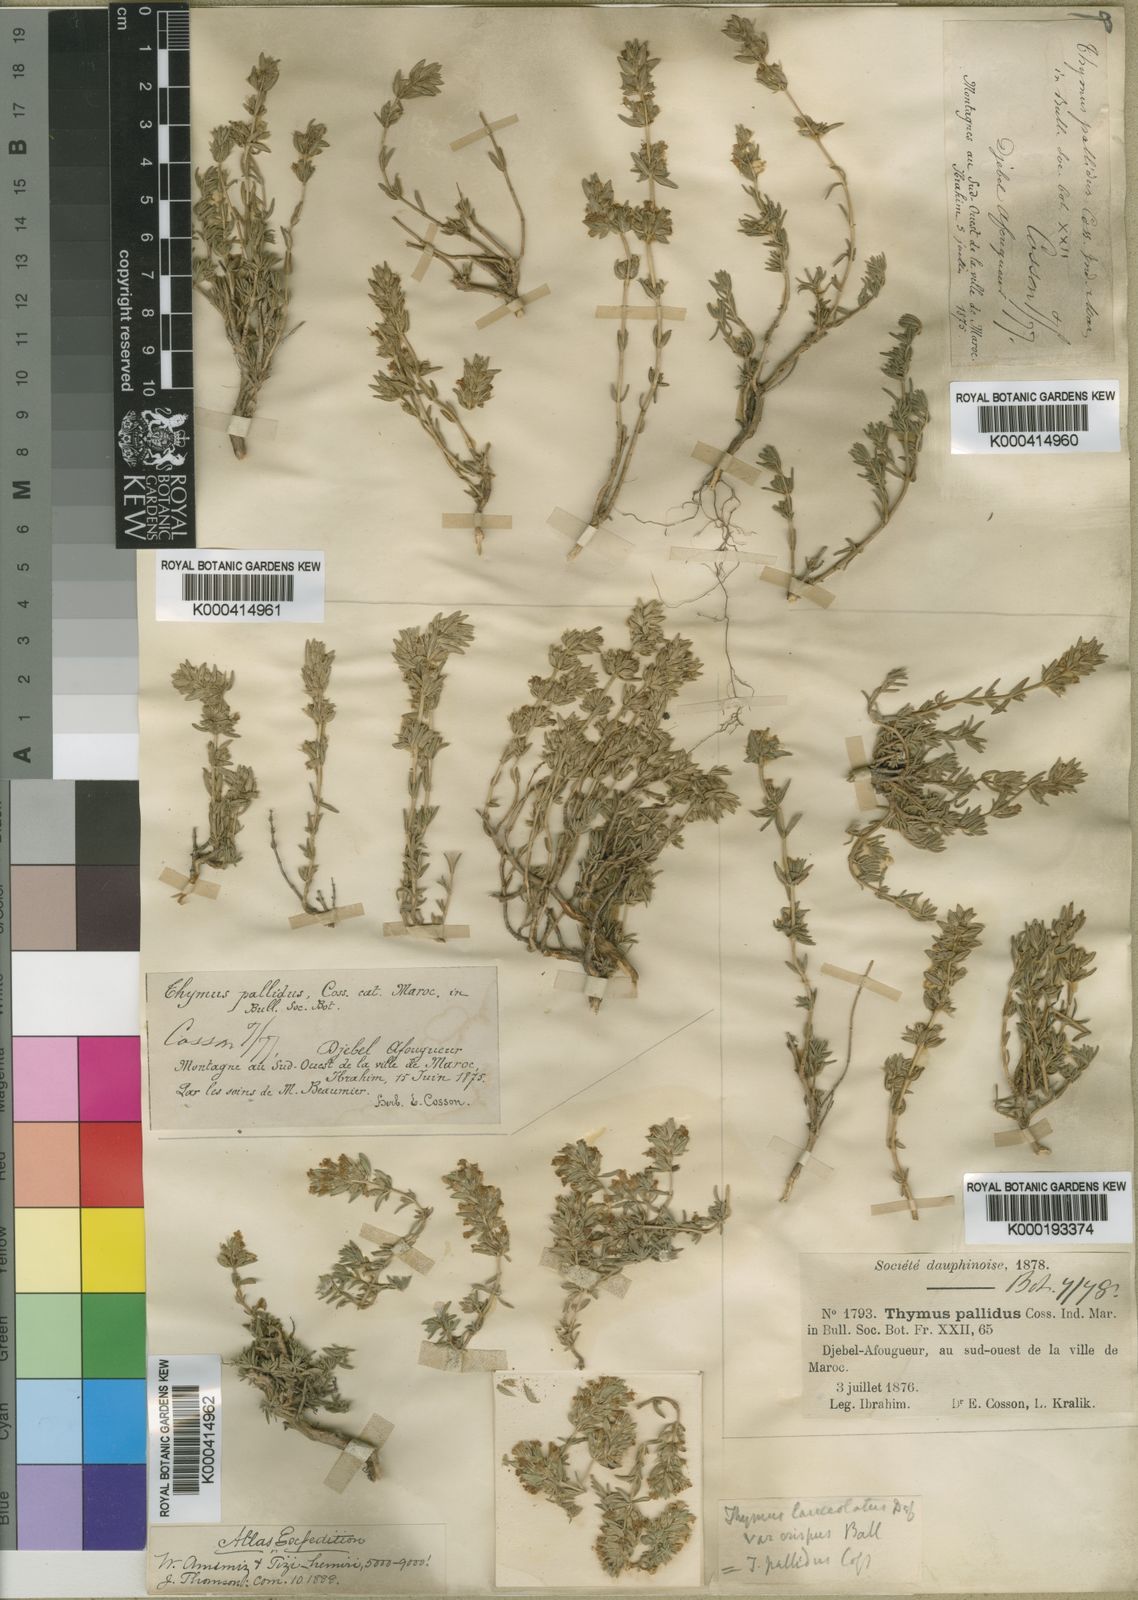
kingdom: Plantae
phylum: Tracheophyta
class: Magnoliopsida
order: Lamiales
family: Lamiaceae
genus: Thymus
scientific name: Thymus
